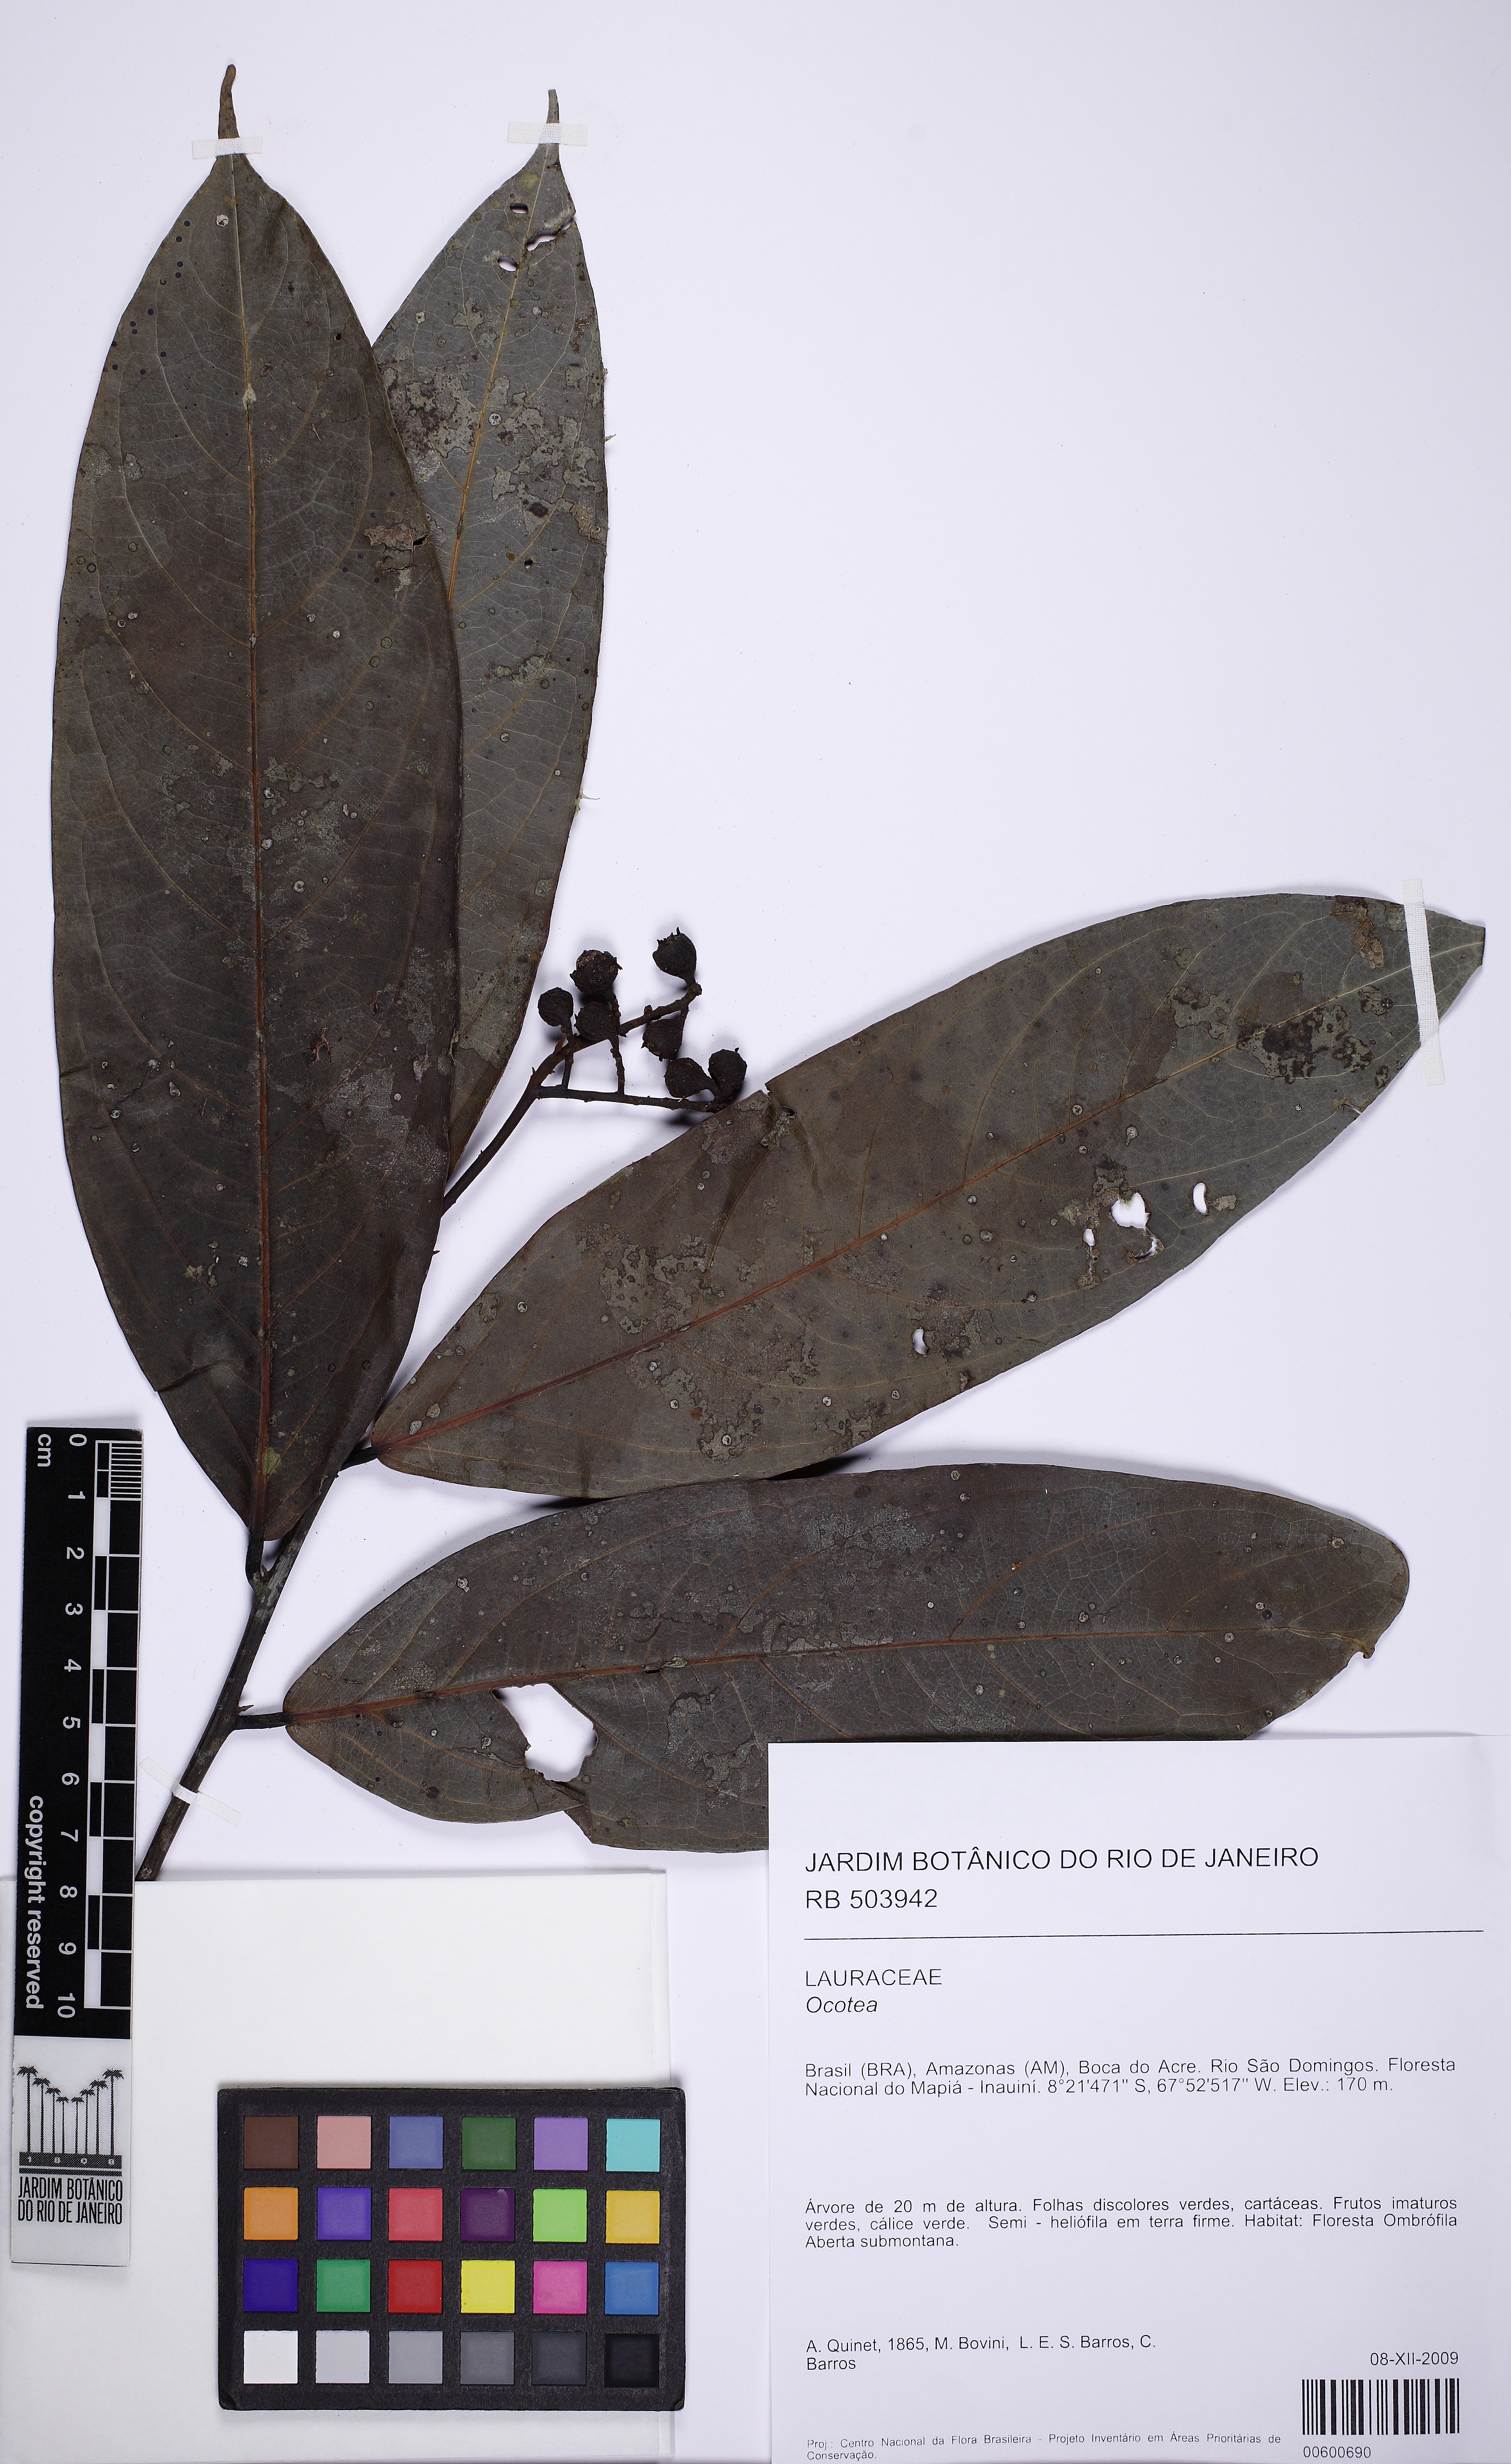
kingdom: Plantae
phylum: Tracheophyta
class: Magnoliopsida
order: Laurales
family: Lauraceae
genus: Ocotea
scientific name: Ocotea
